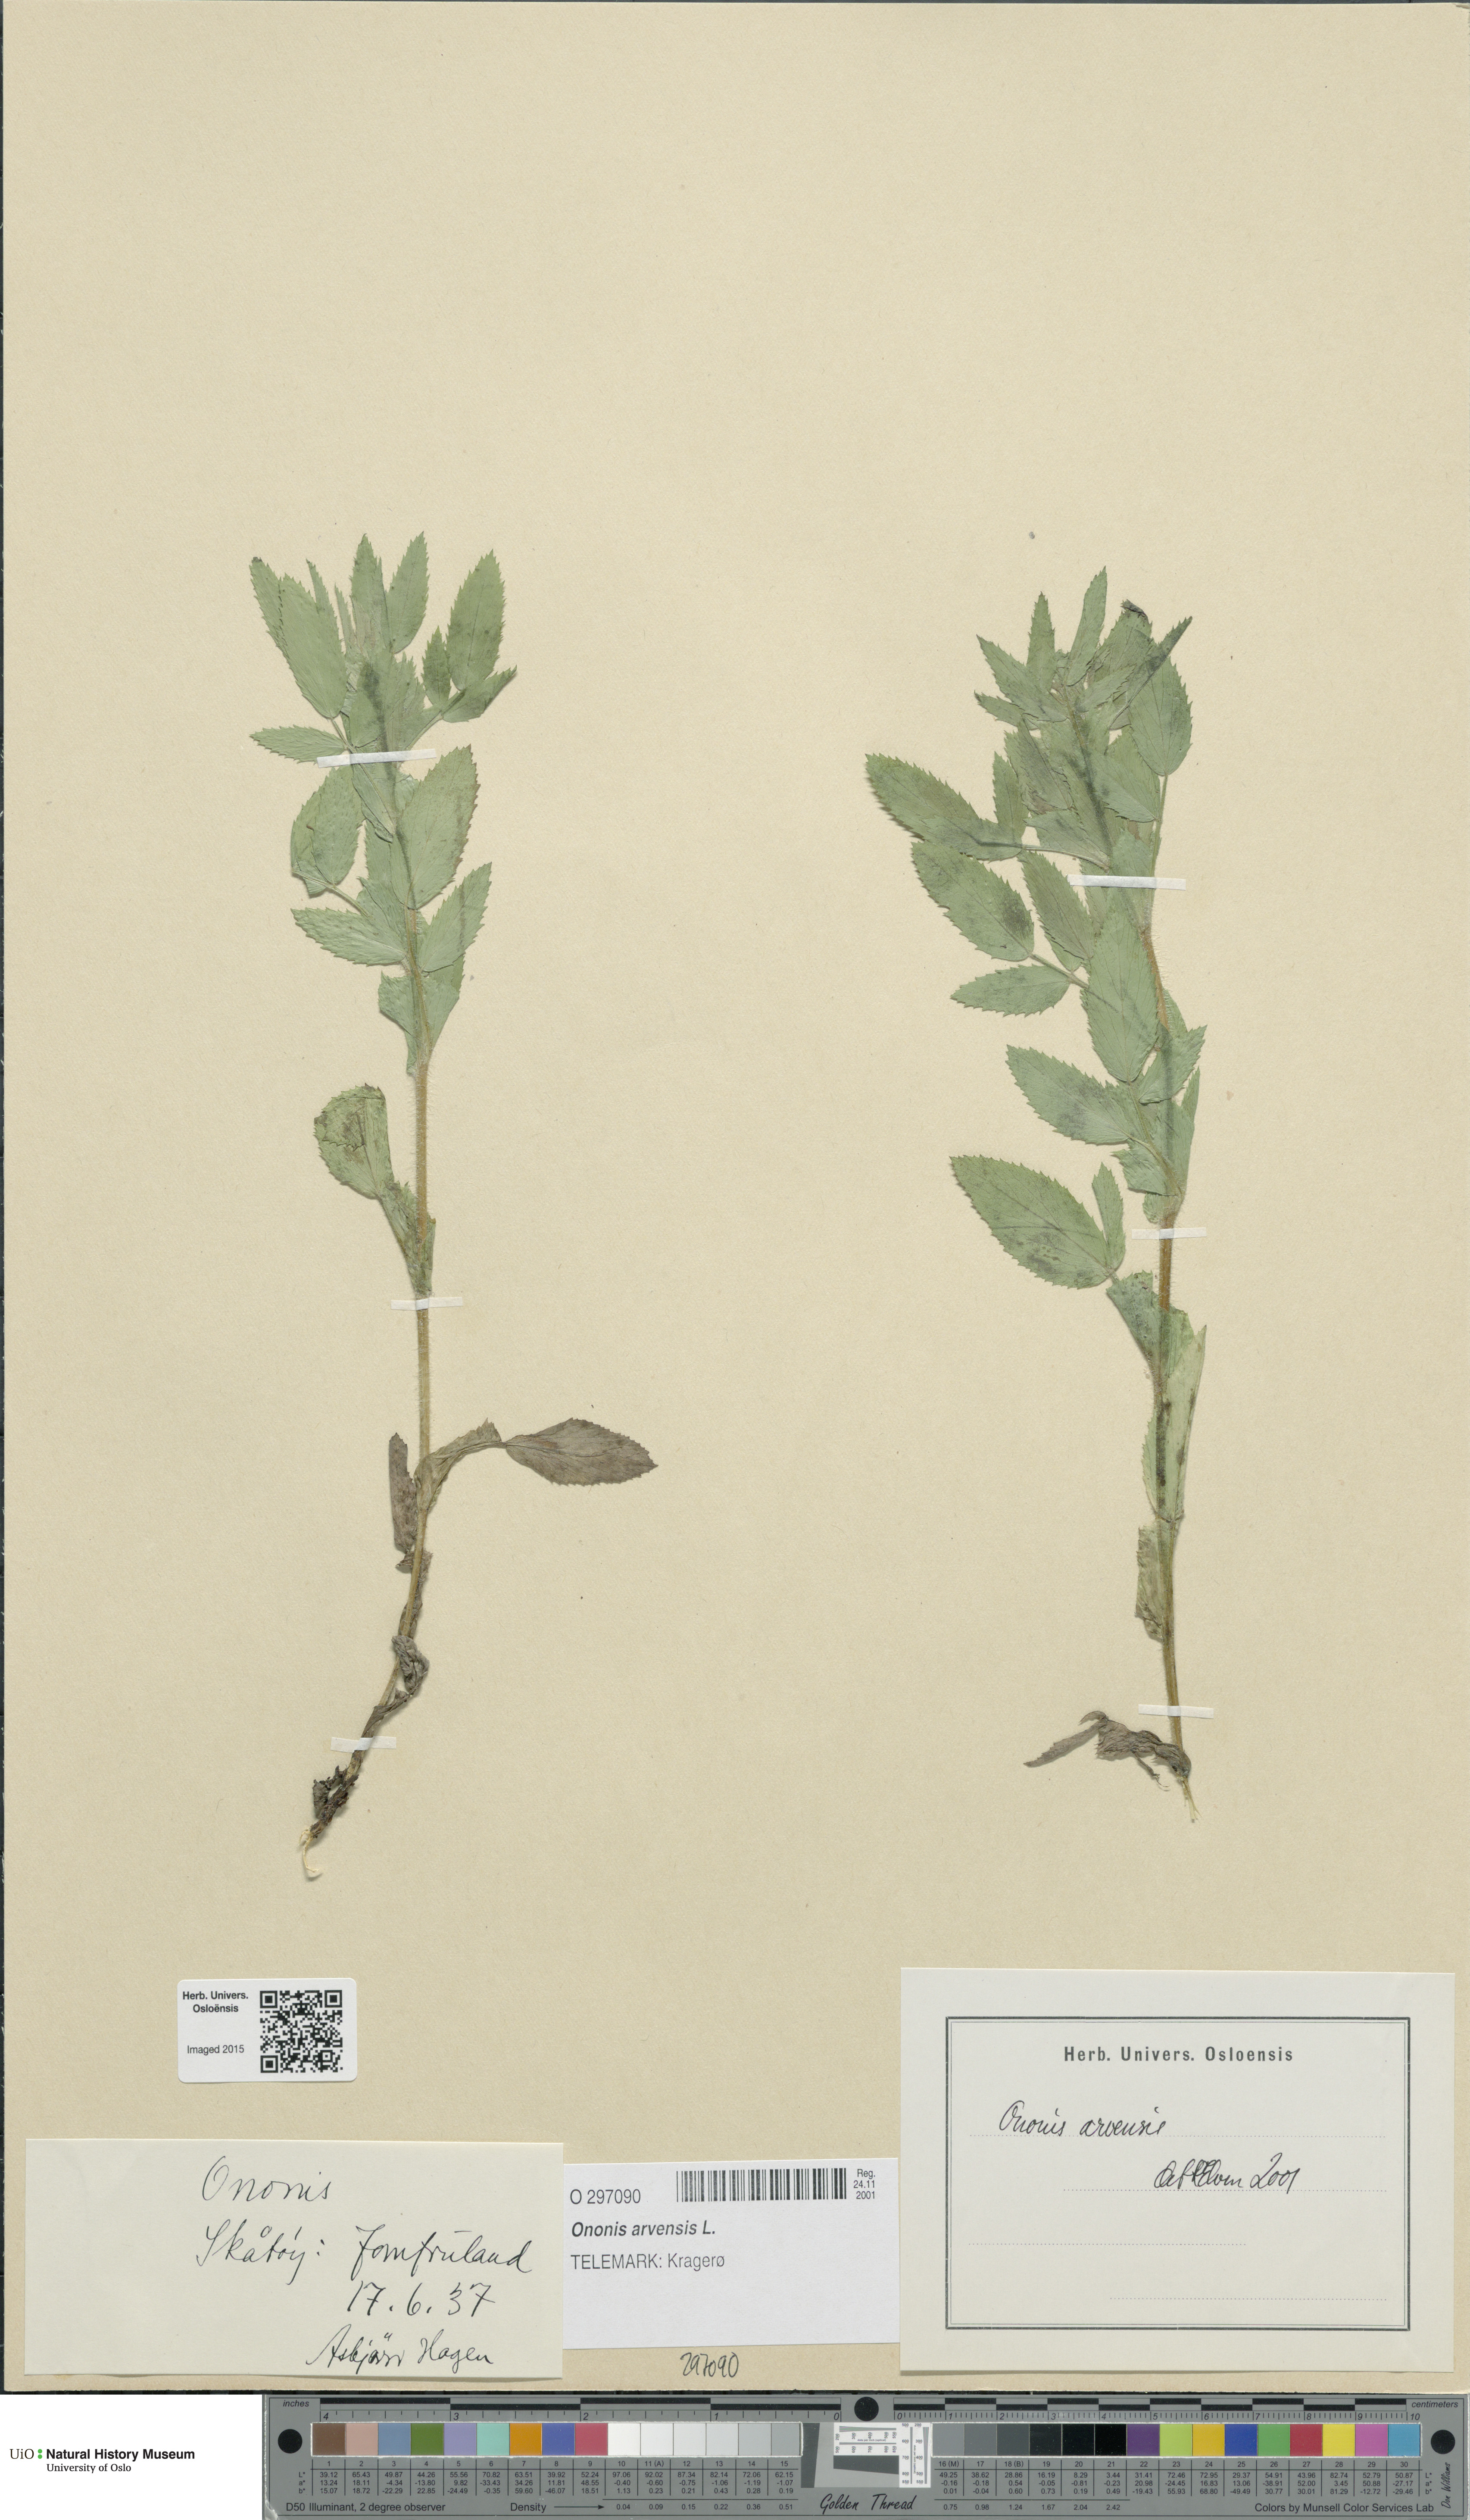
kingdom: Plantae
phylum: Tracheophyta
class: Magnoliopsida
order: Fabales
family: Fabaceae
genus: Ononis
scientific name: Ononis arvensis
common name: Field restharrow
